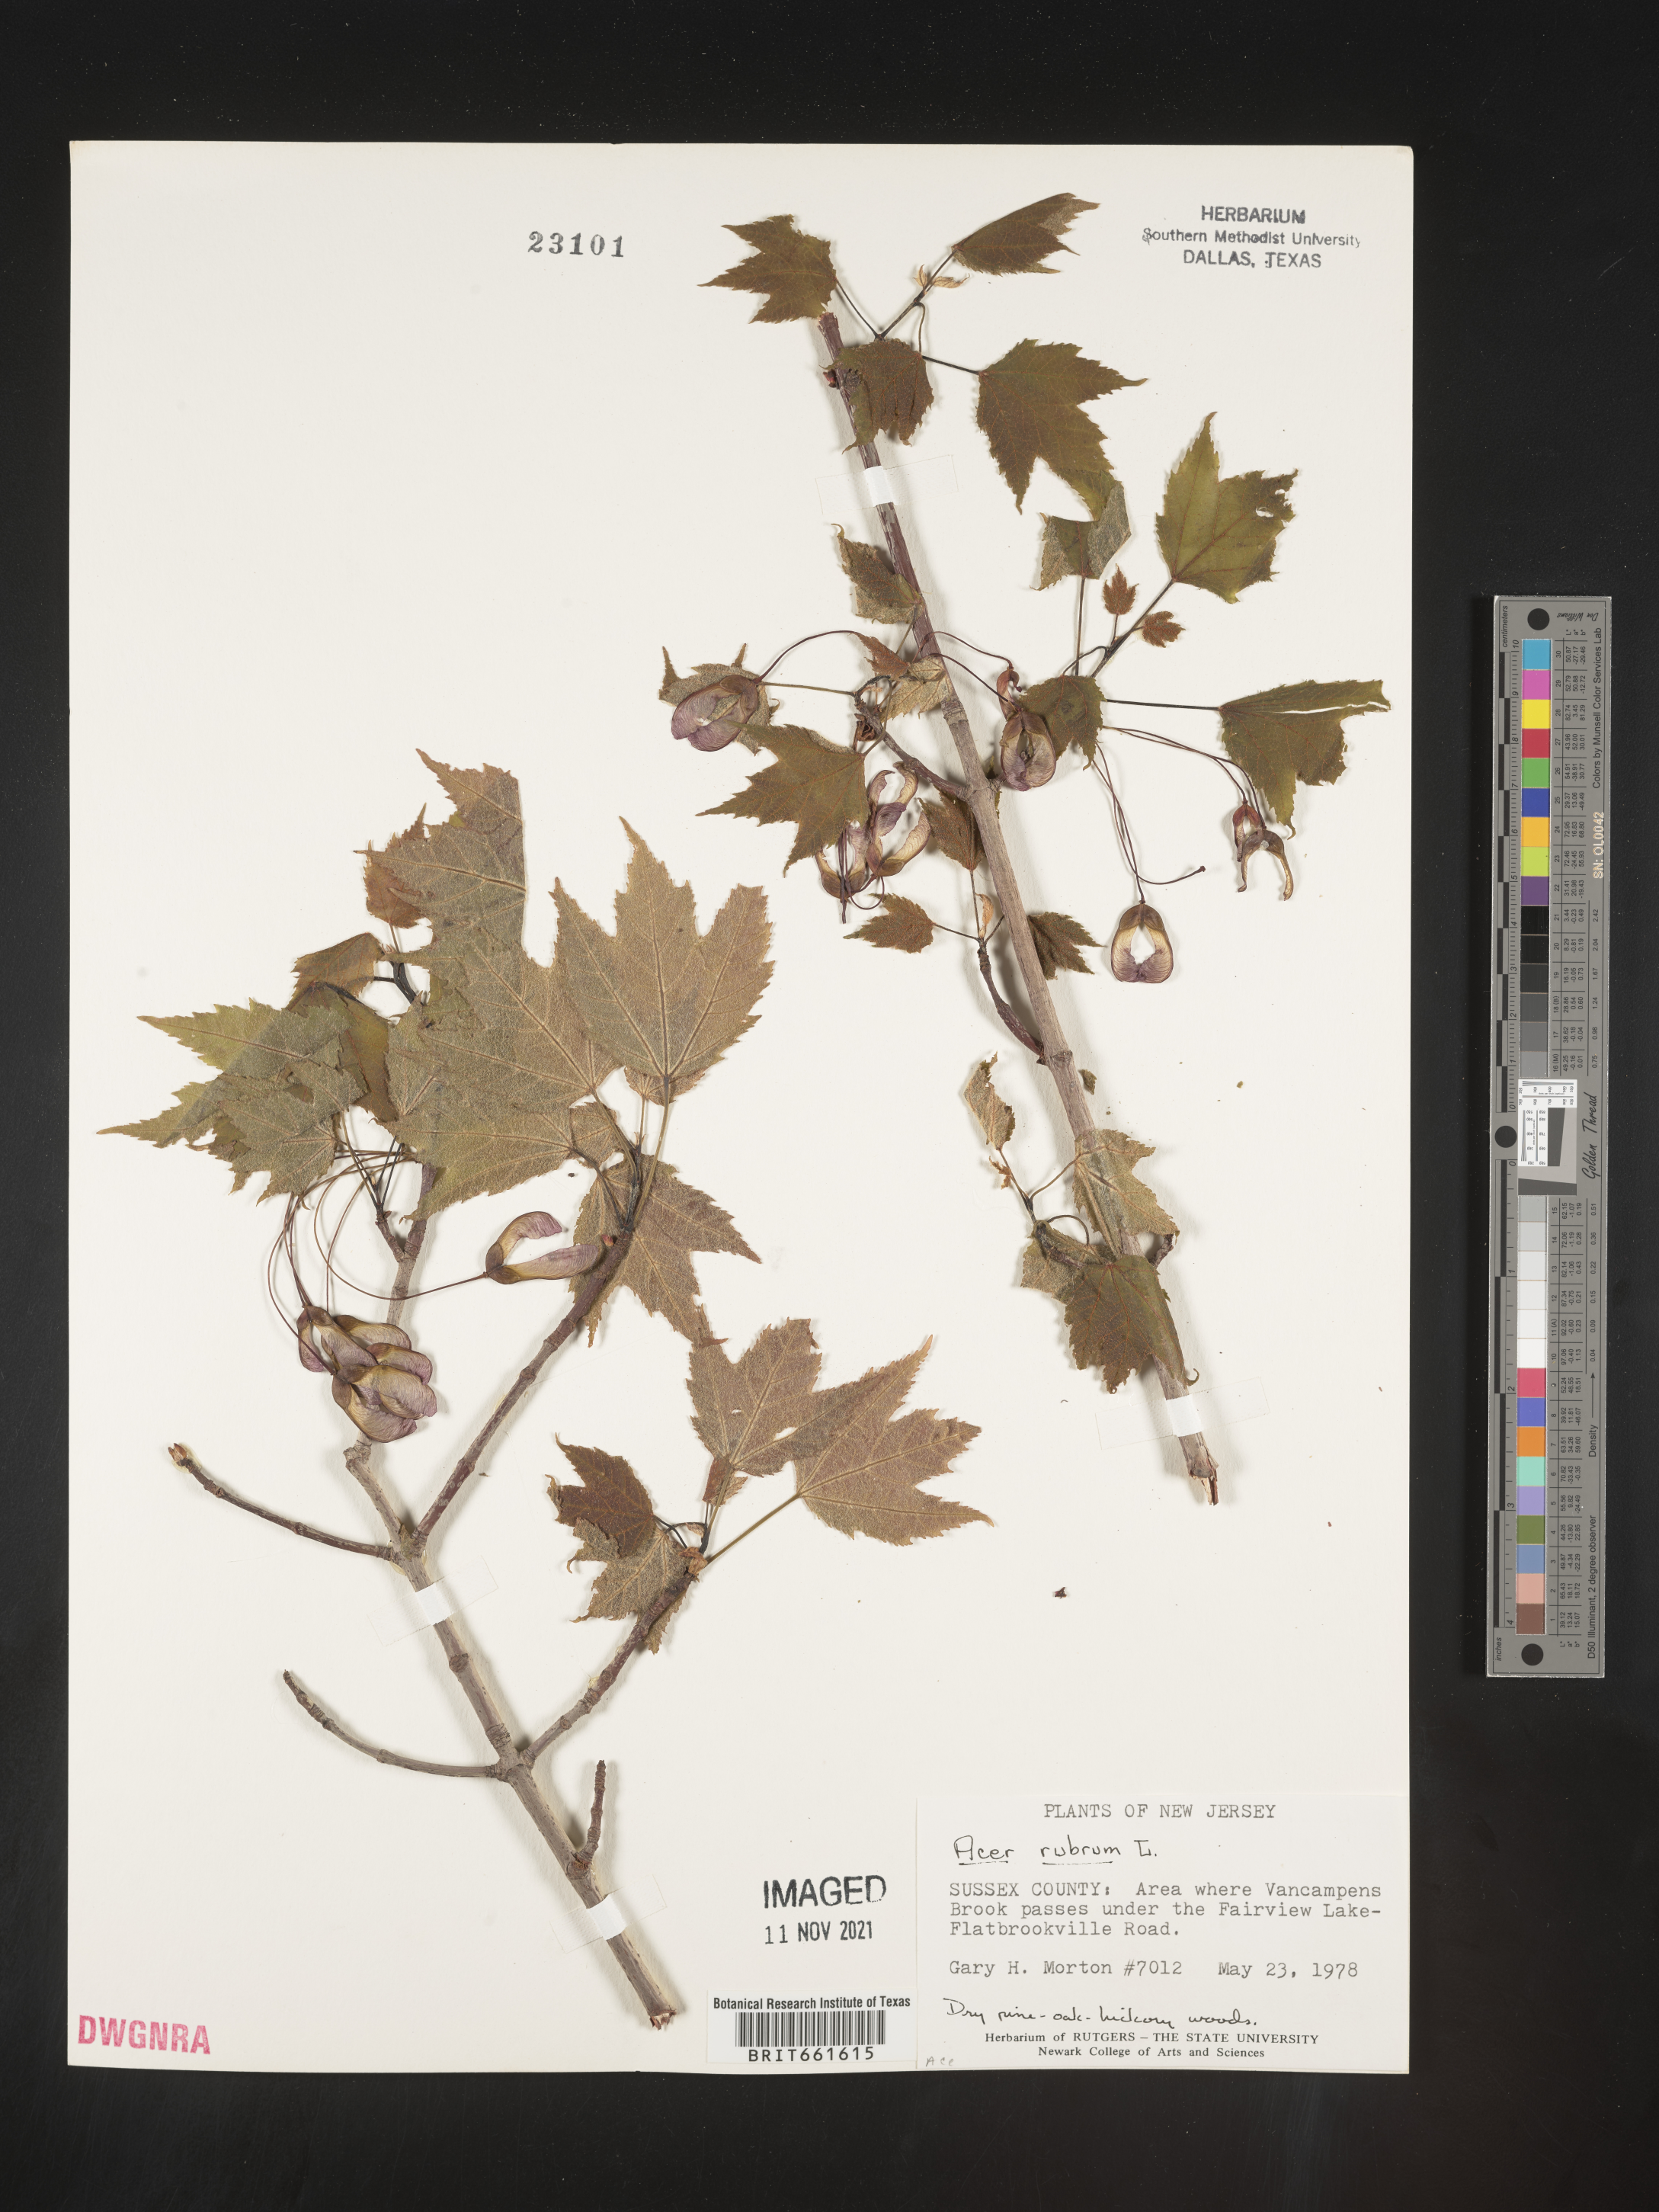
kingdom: Plantae
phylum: Tracheophyta
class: Magnoliopsida
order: Sapindales
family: Sapindaceae
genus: Acer
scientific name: Acer rubrum
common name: Red maple
